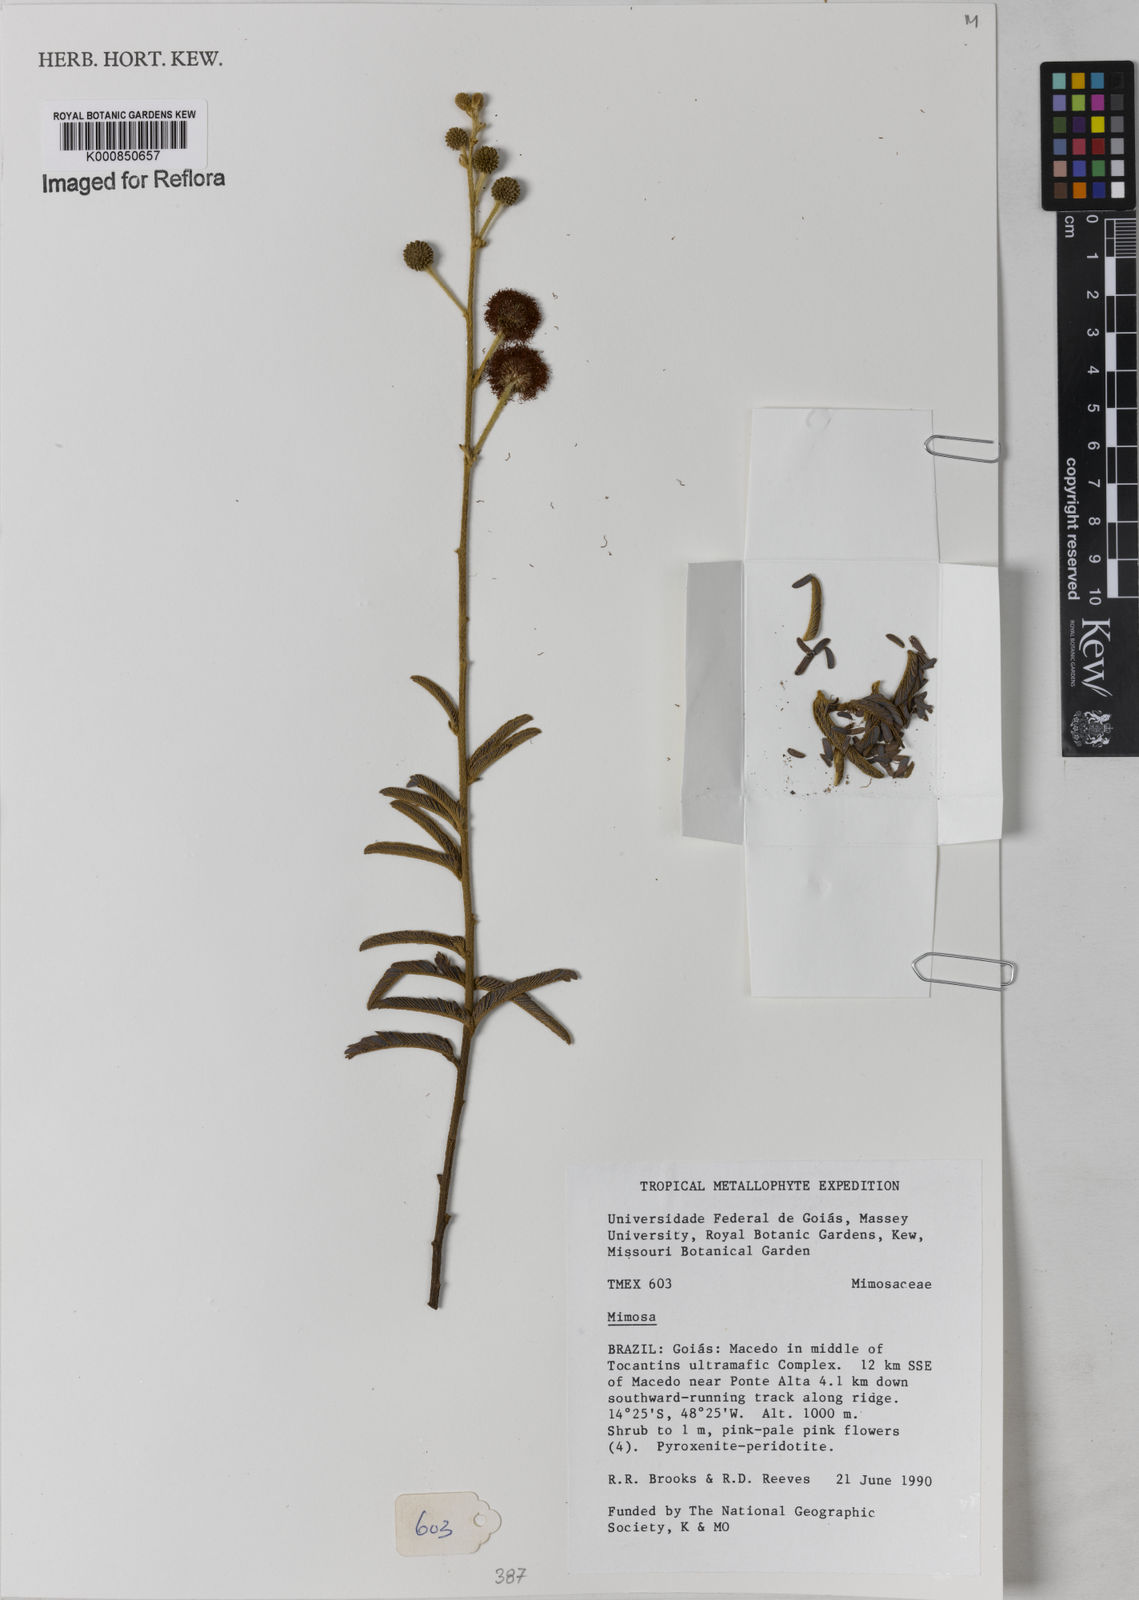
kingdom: Plantae
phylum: Tracheophyta
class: Magnoliopsida
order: Fabales
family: Fabaceae
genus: Mimosa
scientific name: Mimosa
